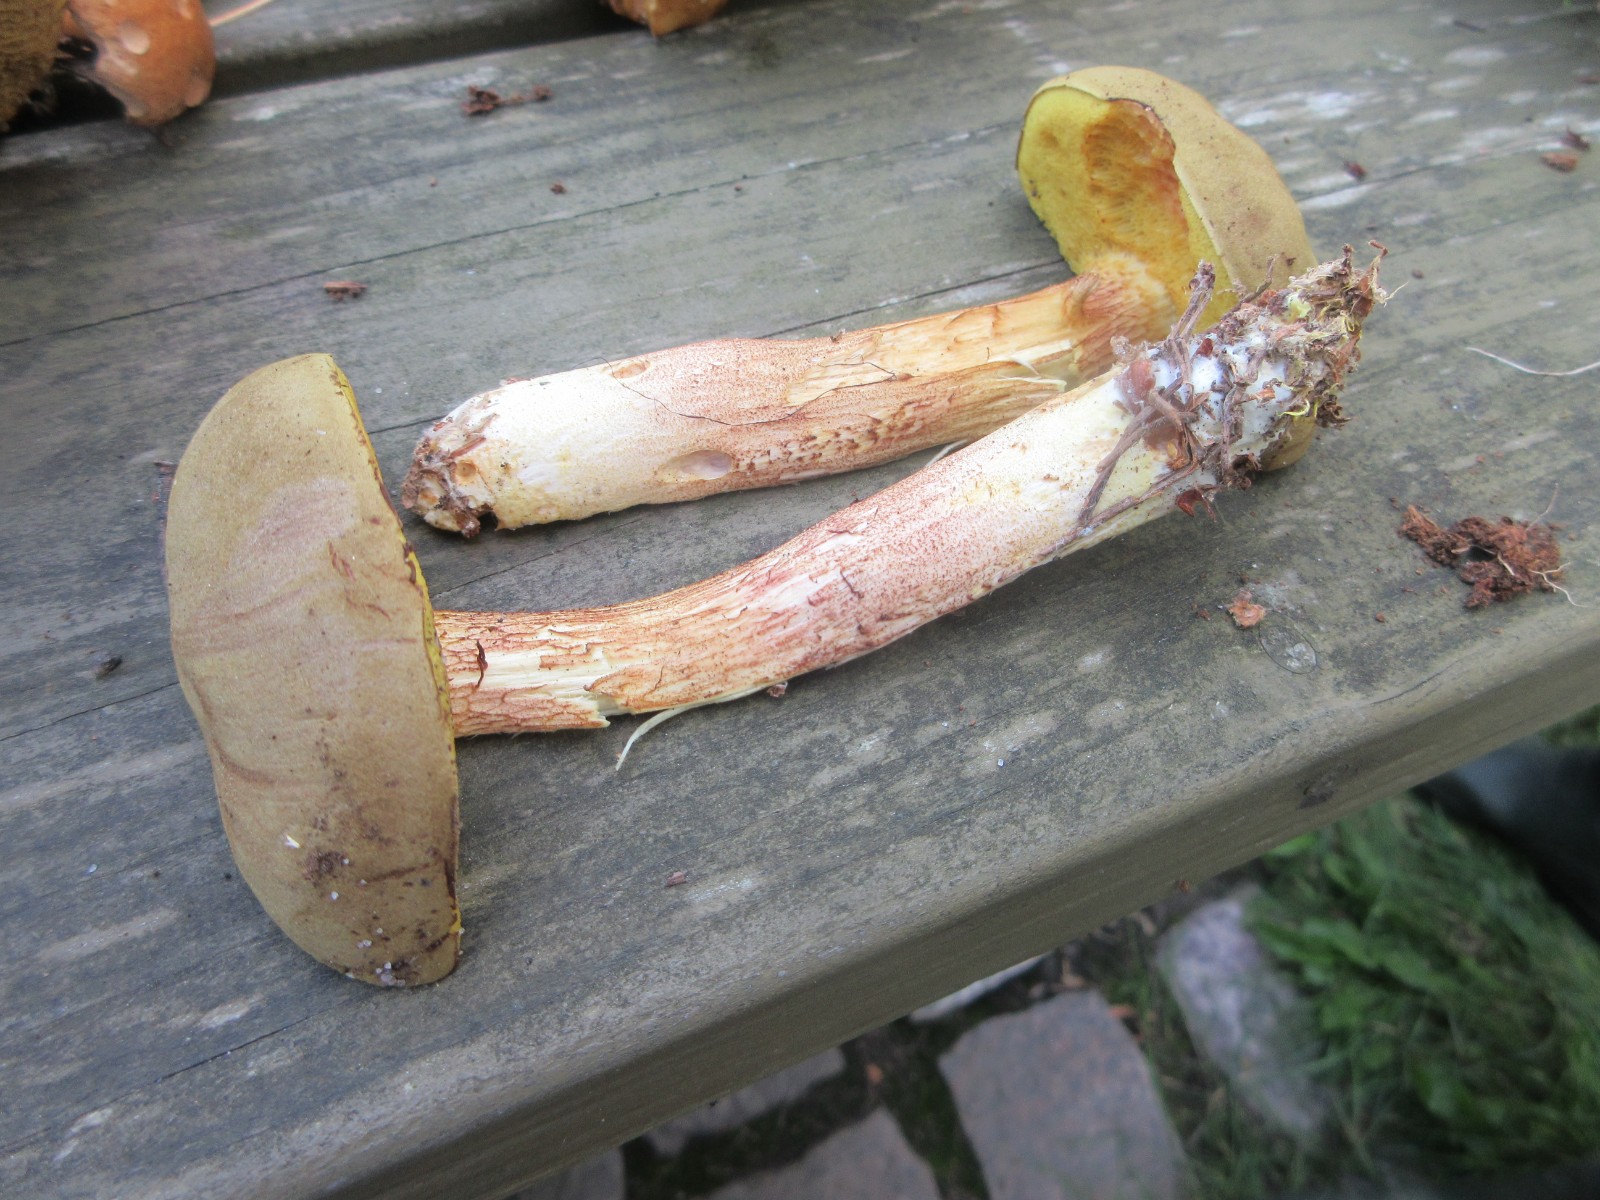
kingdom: Fungi
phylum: Basidiomycota
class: Agaricomycetes
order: Boletales
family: Boletaceae
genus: Xerocomus
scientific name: Xerocomus ferrugineus
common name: vaskeskinds-rørhat
